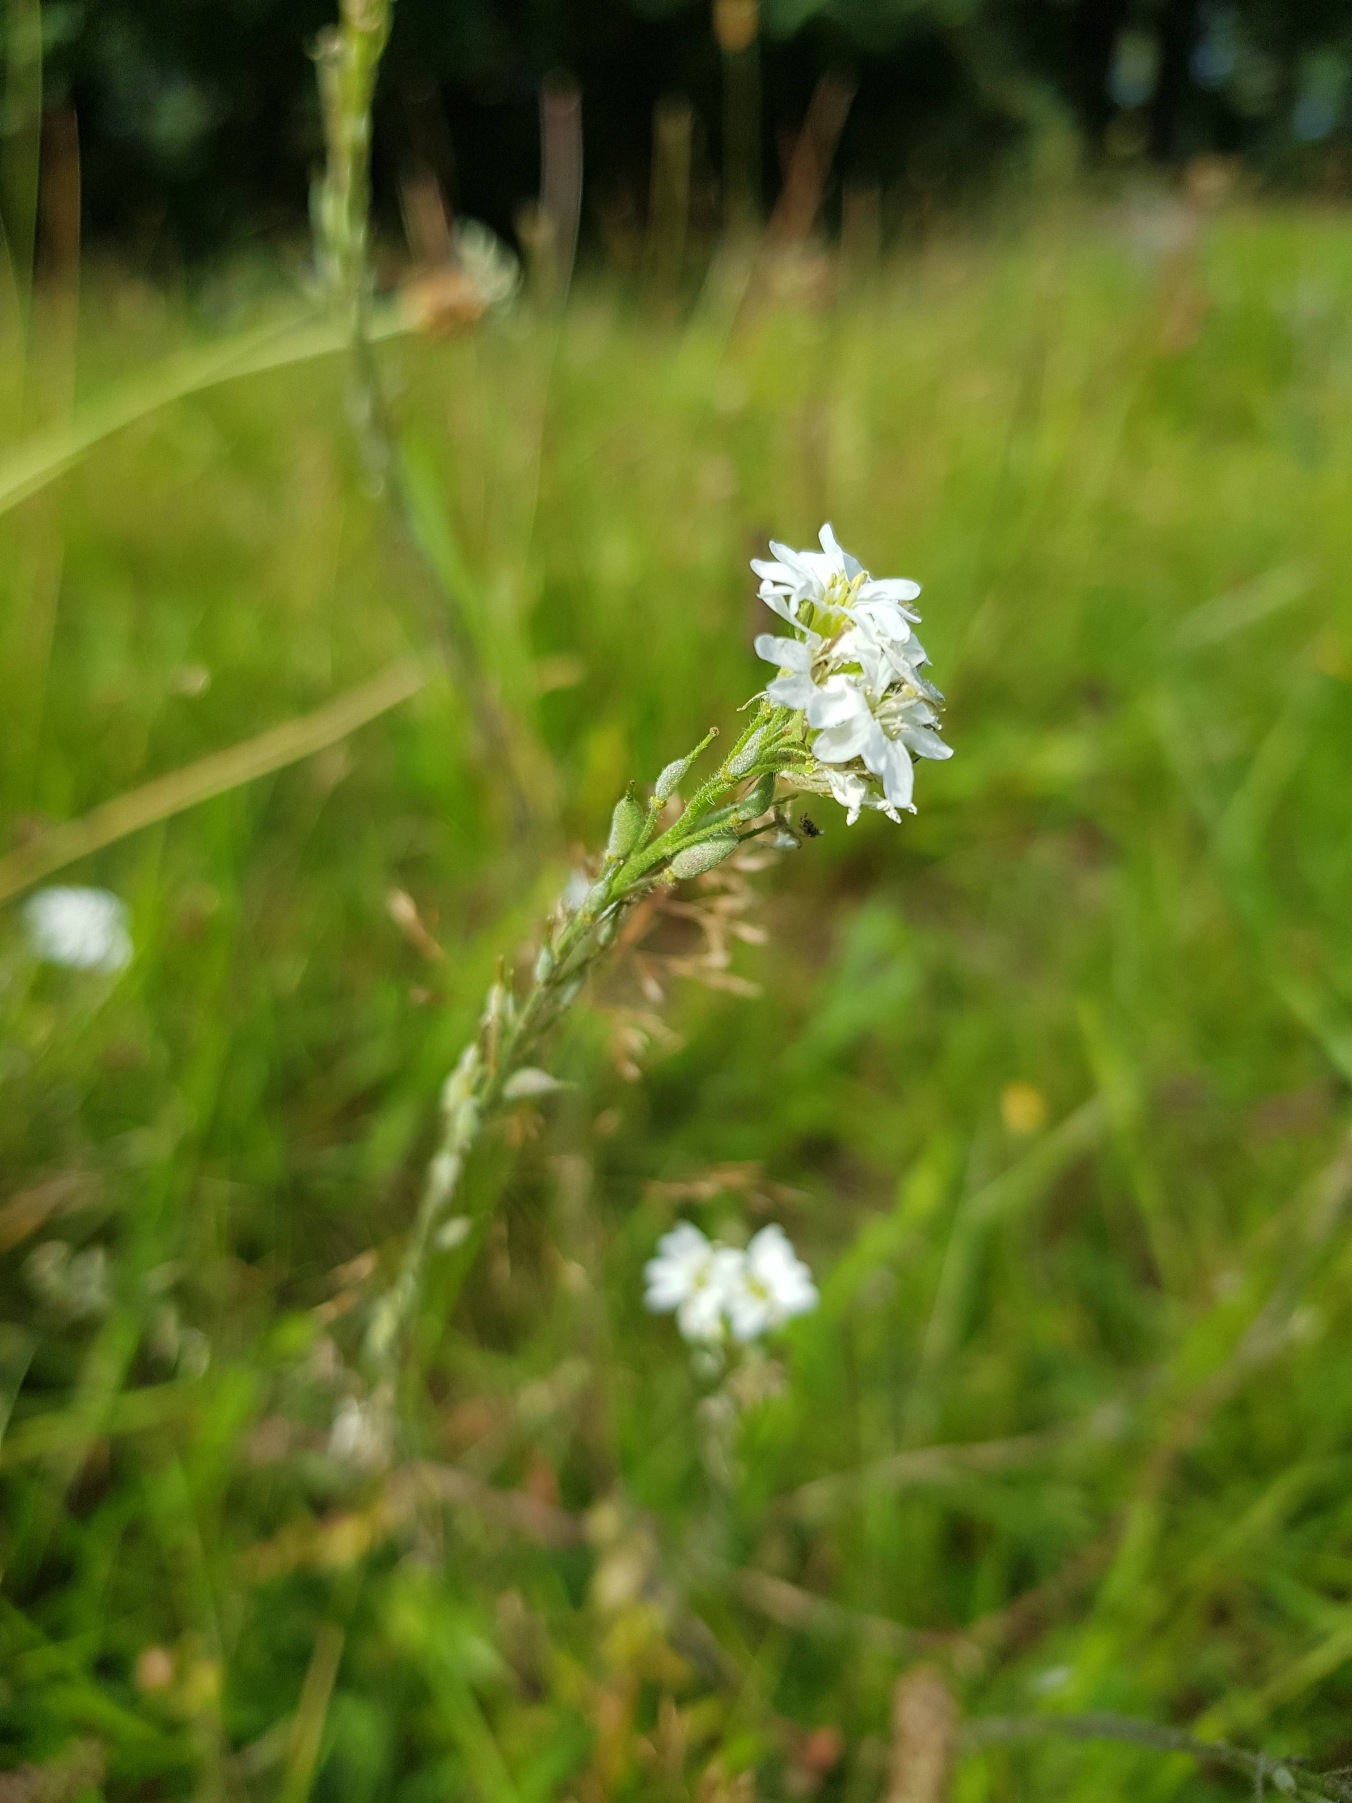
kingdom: Plantae
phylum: Tracheophyta
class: Magnoliopsida
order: Brassicales
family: Brassicaceae
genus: Berteroa
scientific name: Berteroa incana
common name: Kløvplade
